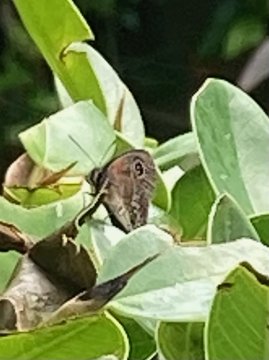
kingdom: Animalia
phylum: Arthropoda
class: Insecta
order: Lepidoptera
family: Nymphalidae
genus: Calisto
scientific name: Calisto obscura
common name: Obscure Calisto
